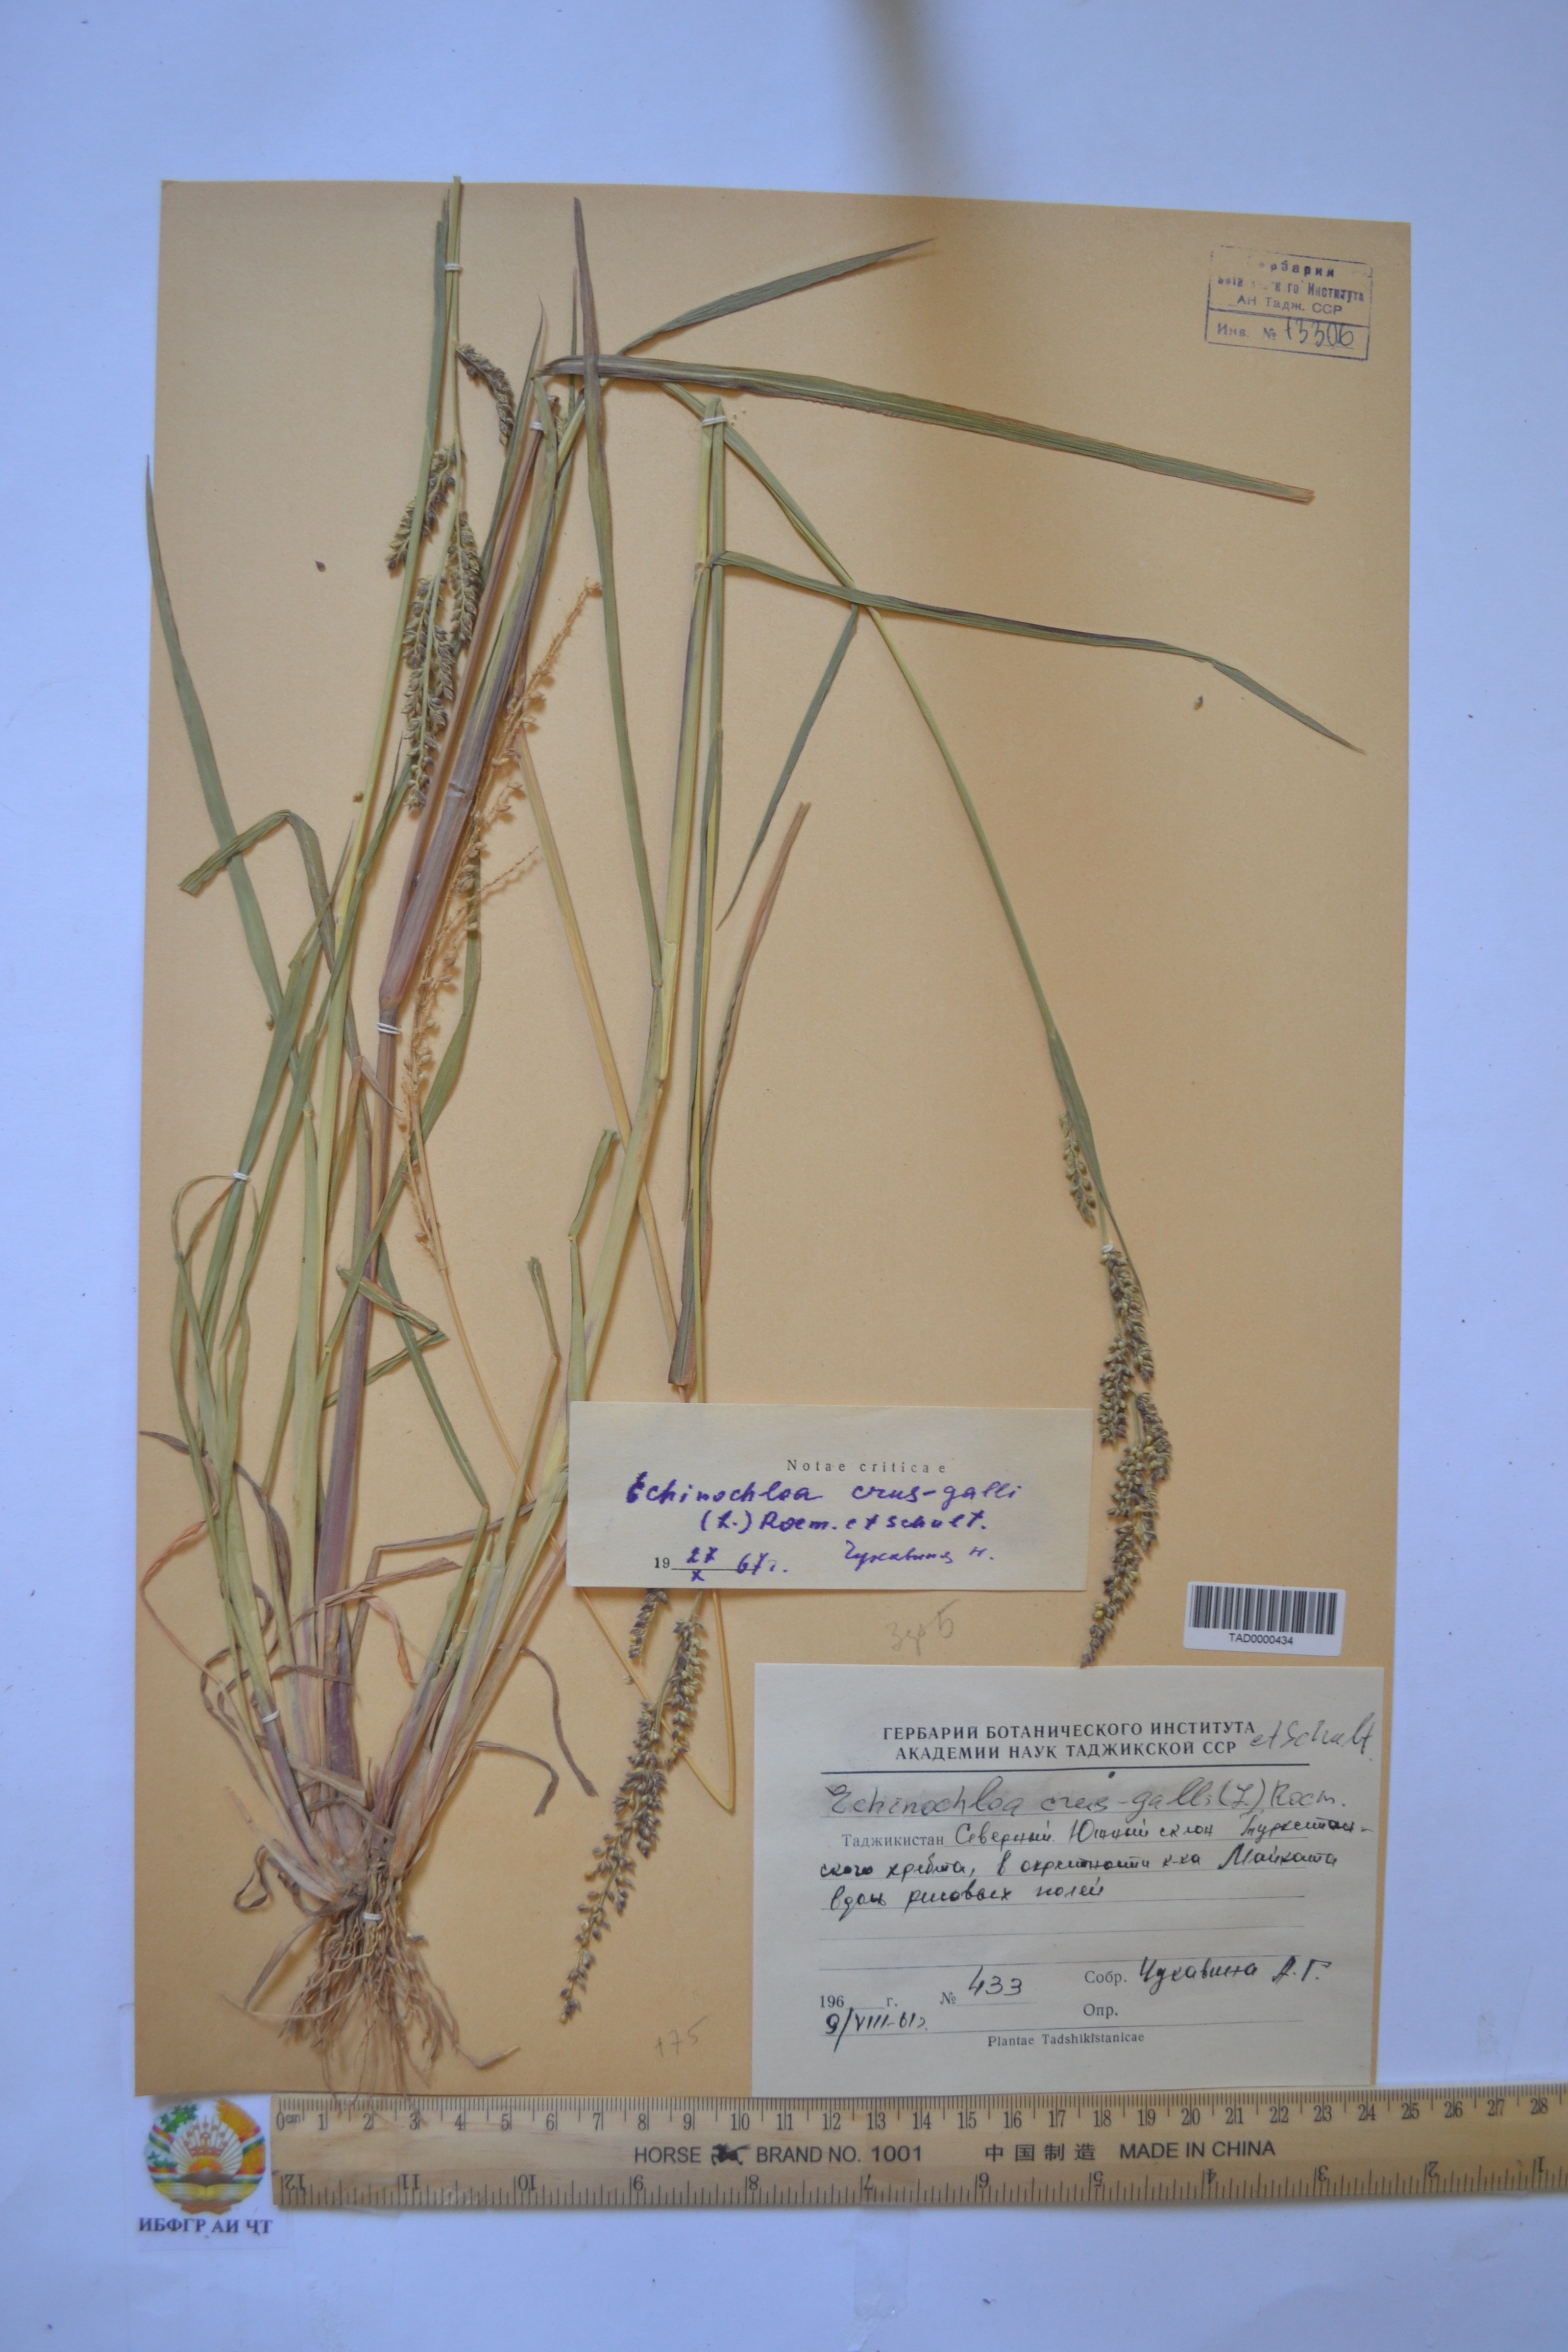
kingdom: Plantae
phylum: Tracheophyta
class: Liliopsida
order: Poales
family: Poaceae
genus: Echinochloa
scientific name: Echinochloa crus-galli
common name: Cockspur
